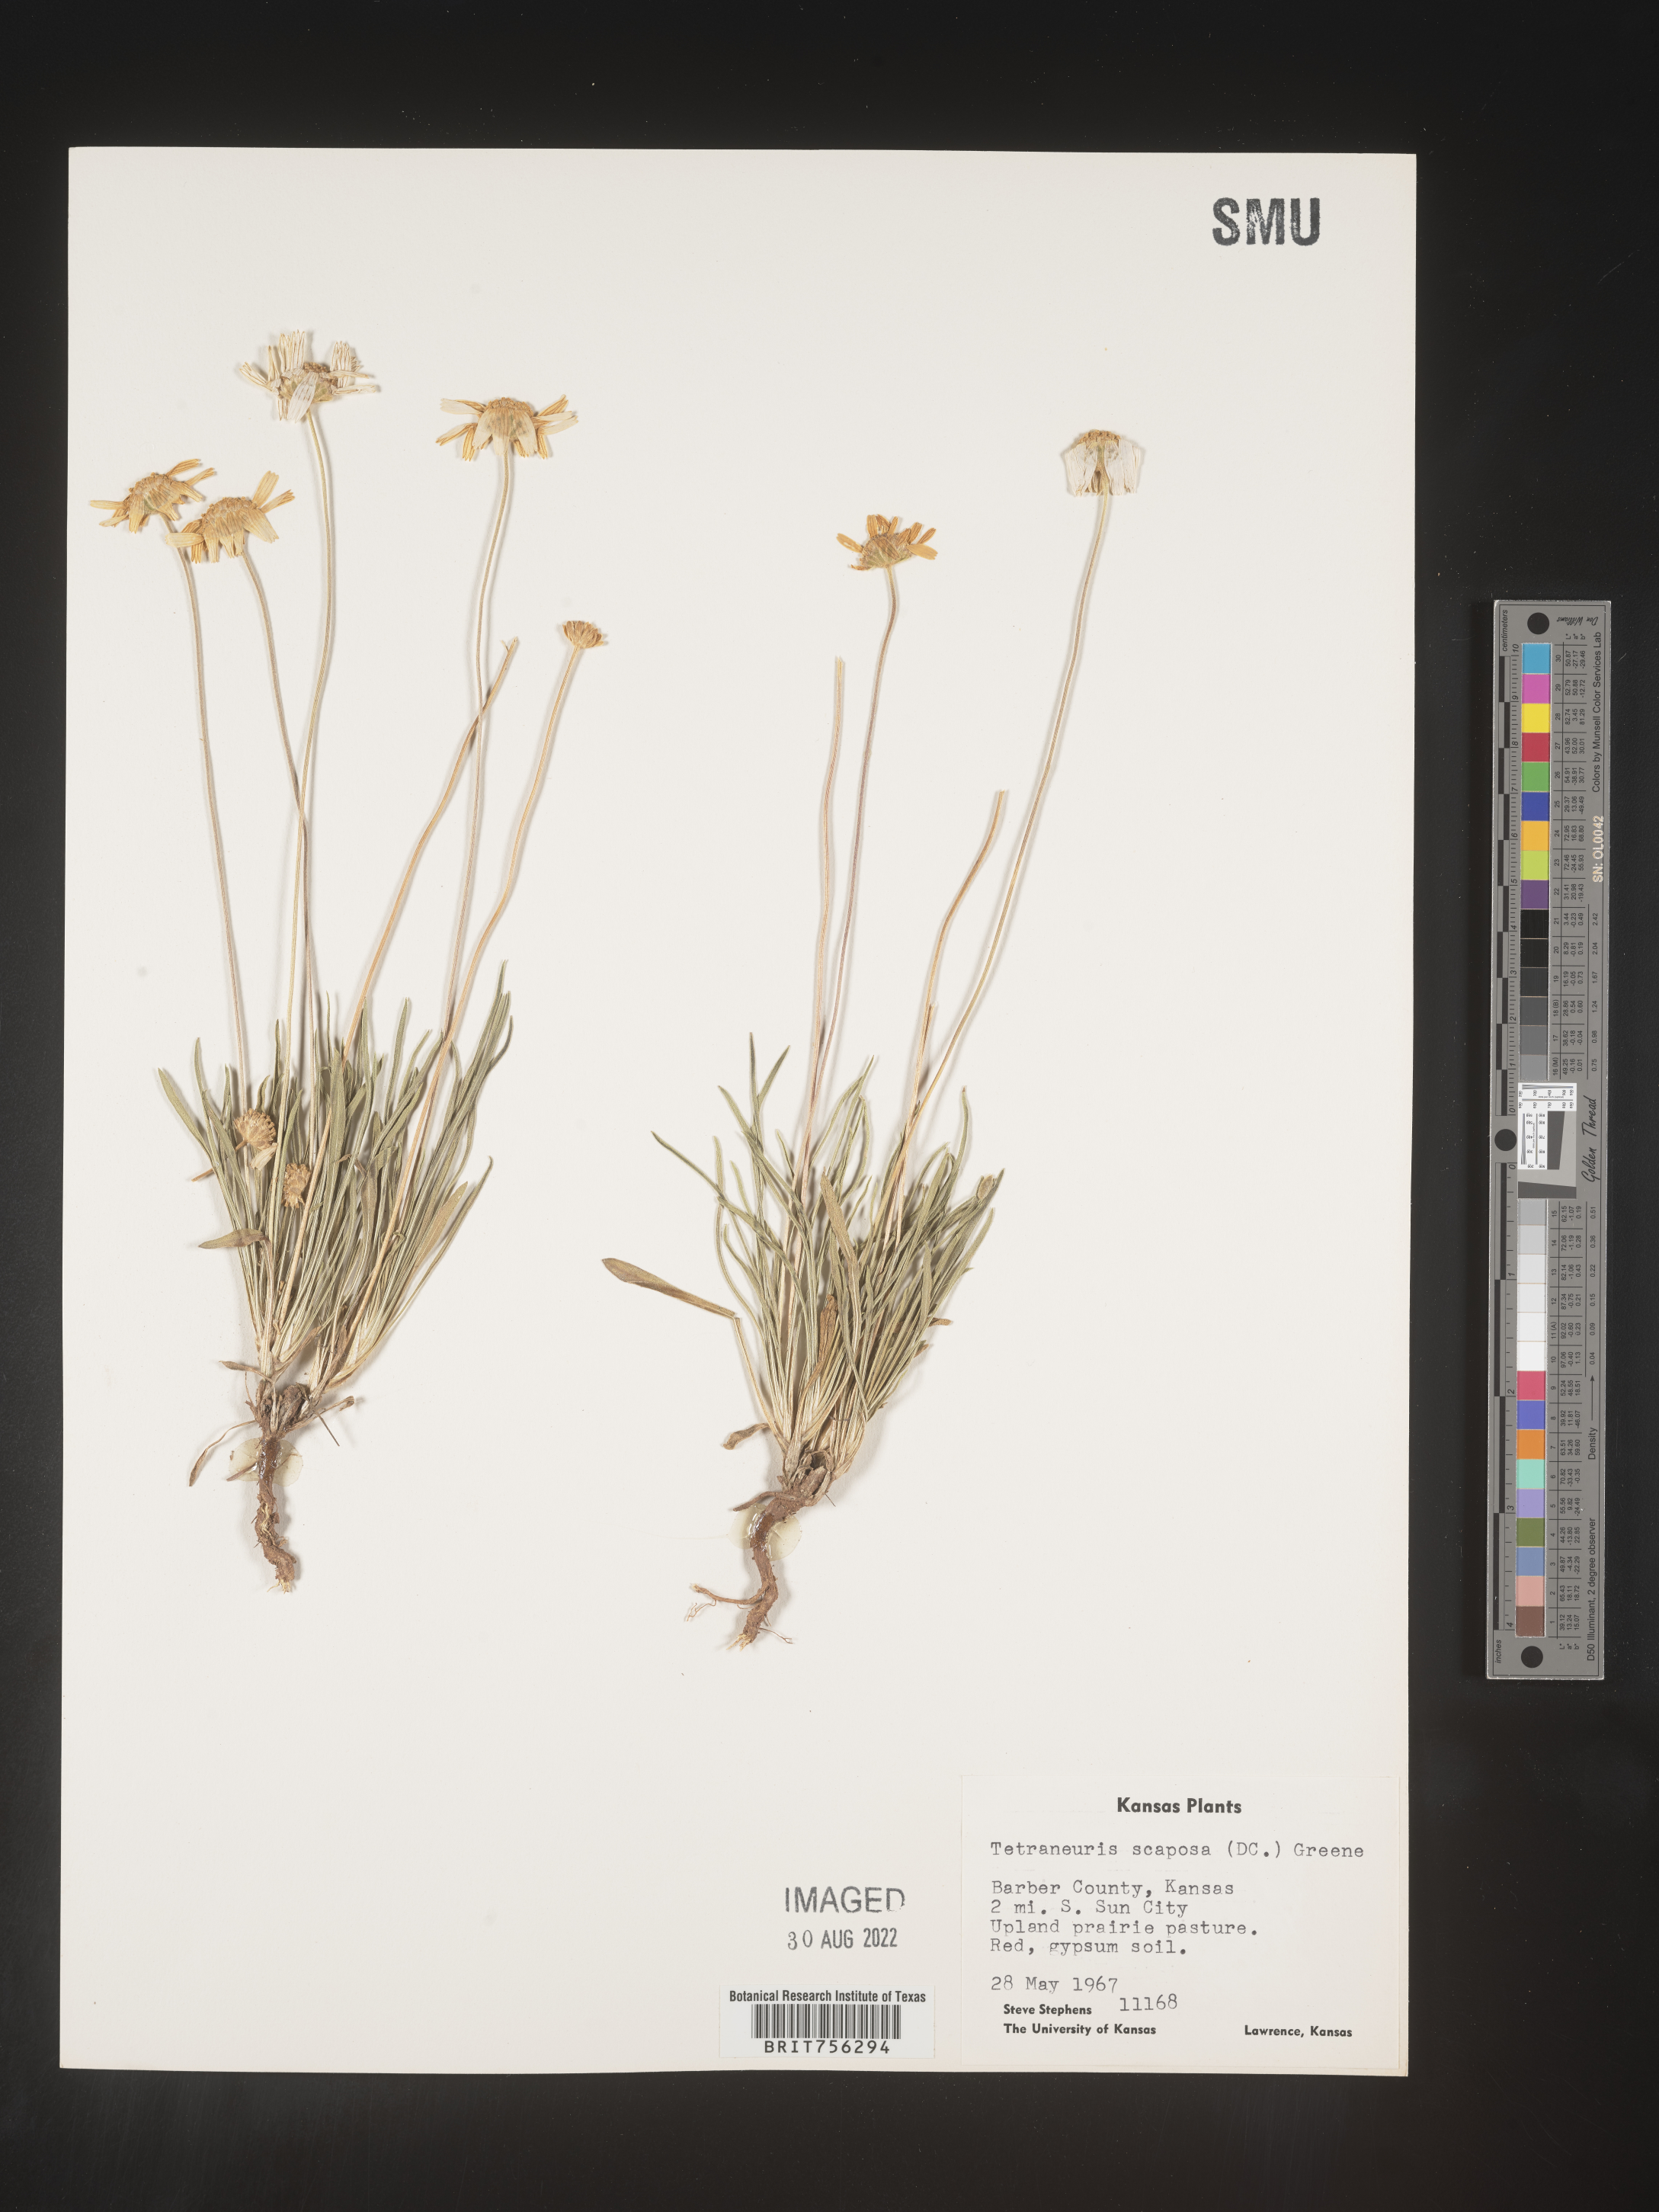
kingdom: Plantae
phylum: Tracheophyta
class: Magnoliopsida
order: Asterales
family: Asteraceae
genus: Tetraneuris
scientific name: Tetraneuris scaposa
